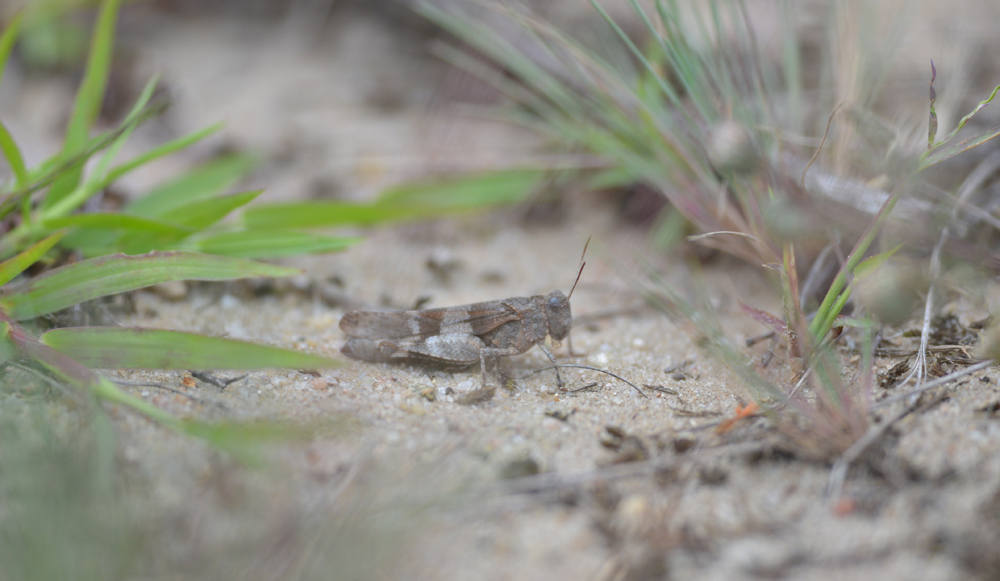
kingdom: Animalia
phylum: Arthropoda
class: Insecta
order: Orthoptera
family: Acrididae
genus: Oedipoda
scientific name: Oedipoda caerulescens
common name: Blue-winged grasshopper
